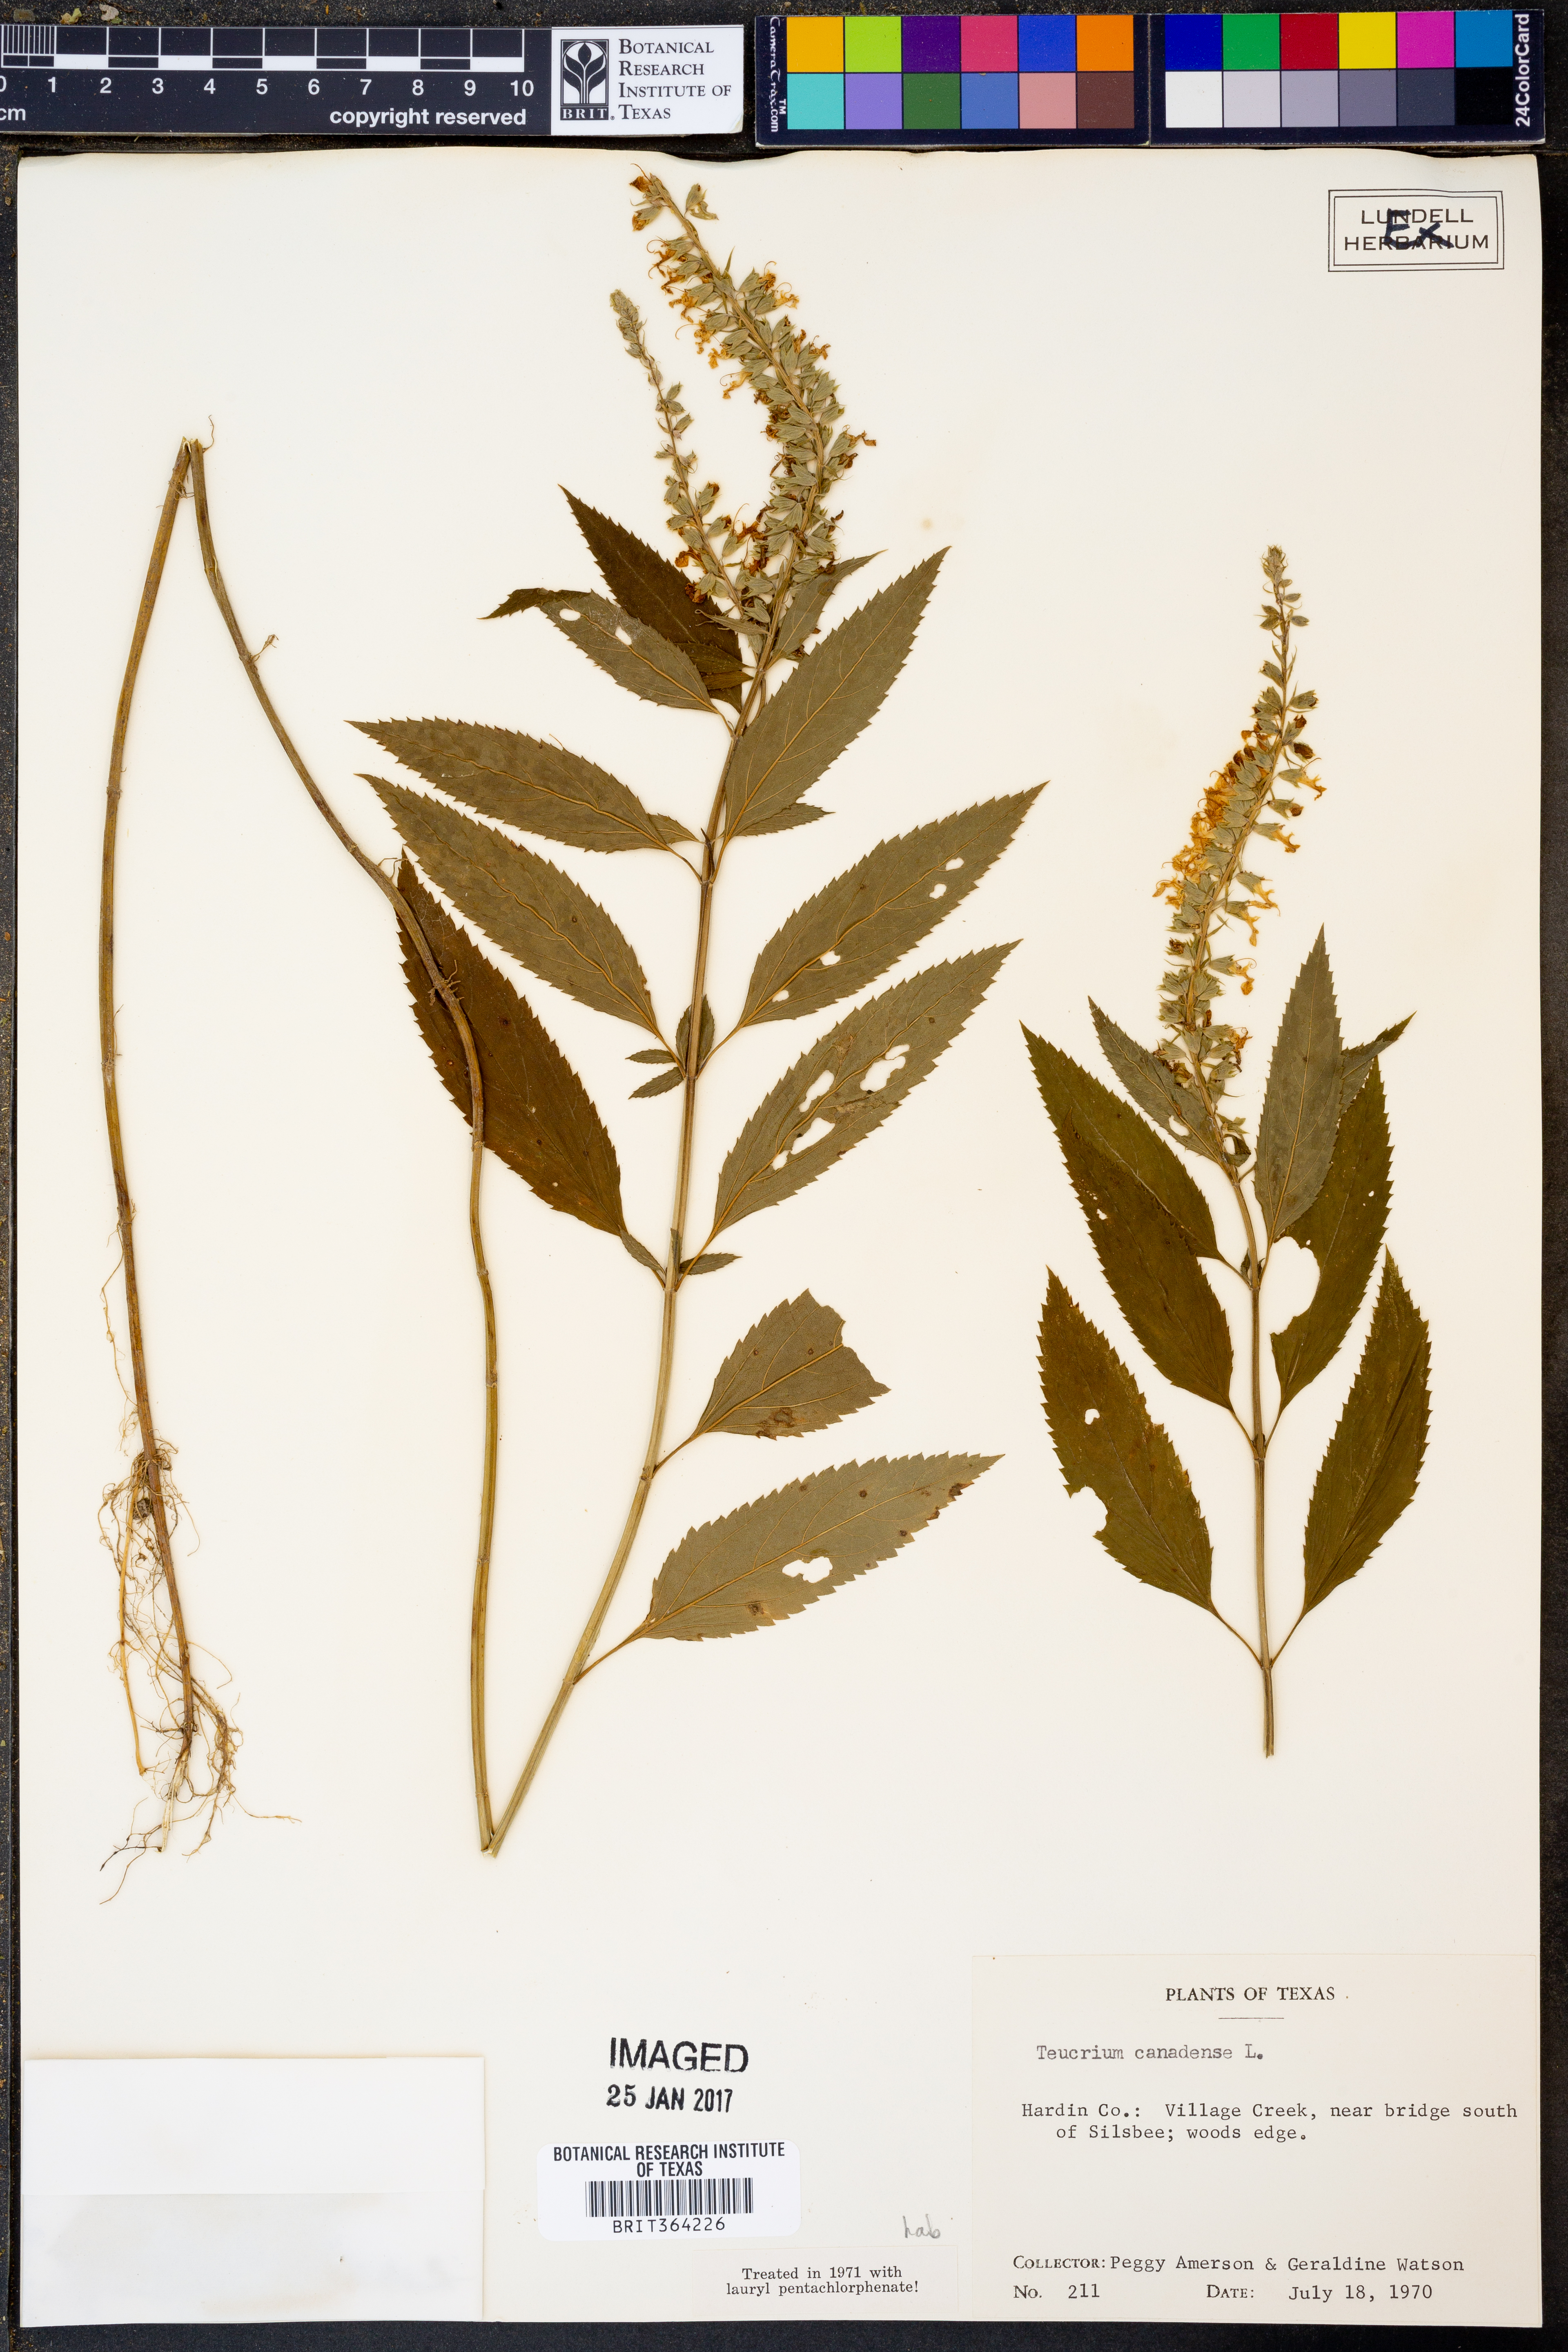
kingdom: Plantae
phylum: Tracheophyta
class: Magnoliopsida
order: Lamiales
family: Lamiaceae
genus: Teucrium
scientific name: Teucrium canadense
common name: American germander
